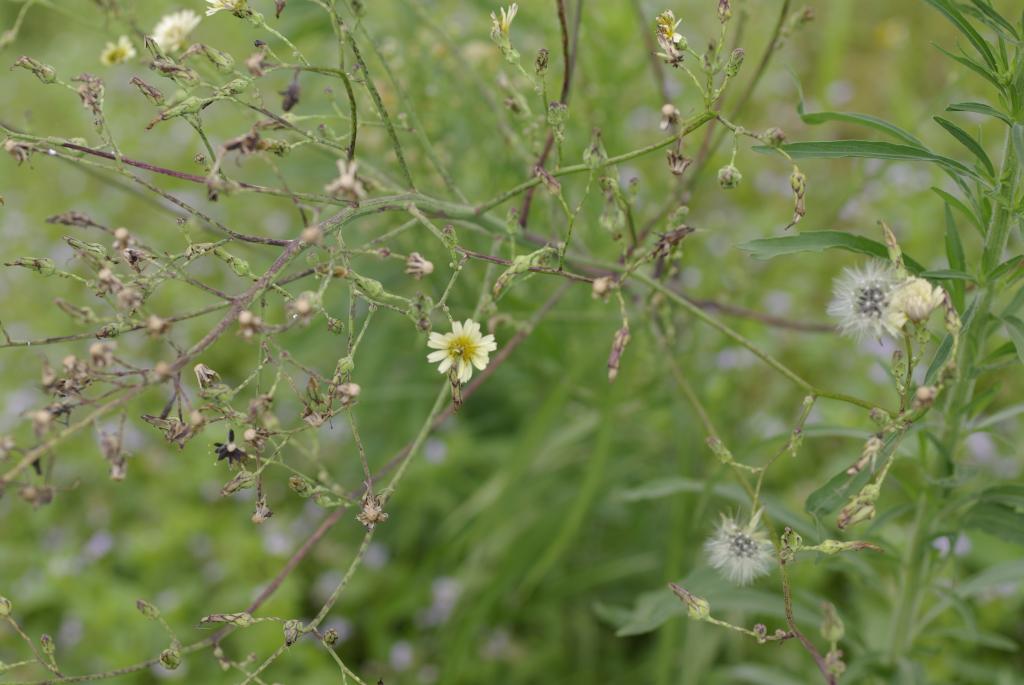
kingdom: Plantae
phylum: Tracheophyta
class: Magnoliopsida
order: Asterales
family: Asteraceae
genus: Lactuca
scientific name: Lactuca indica
